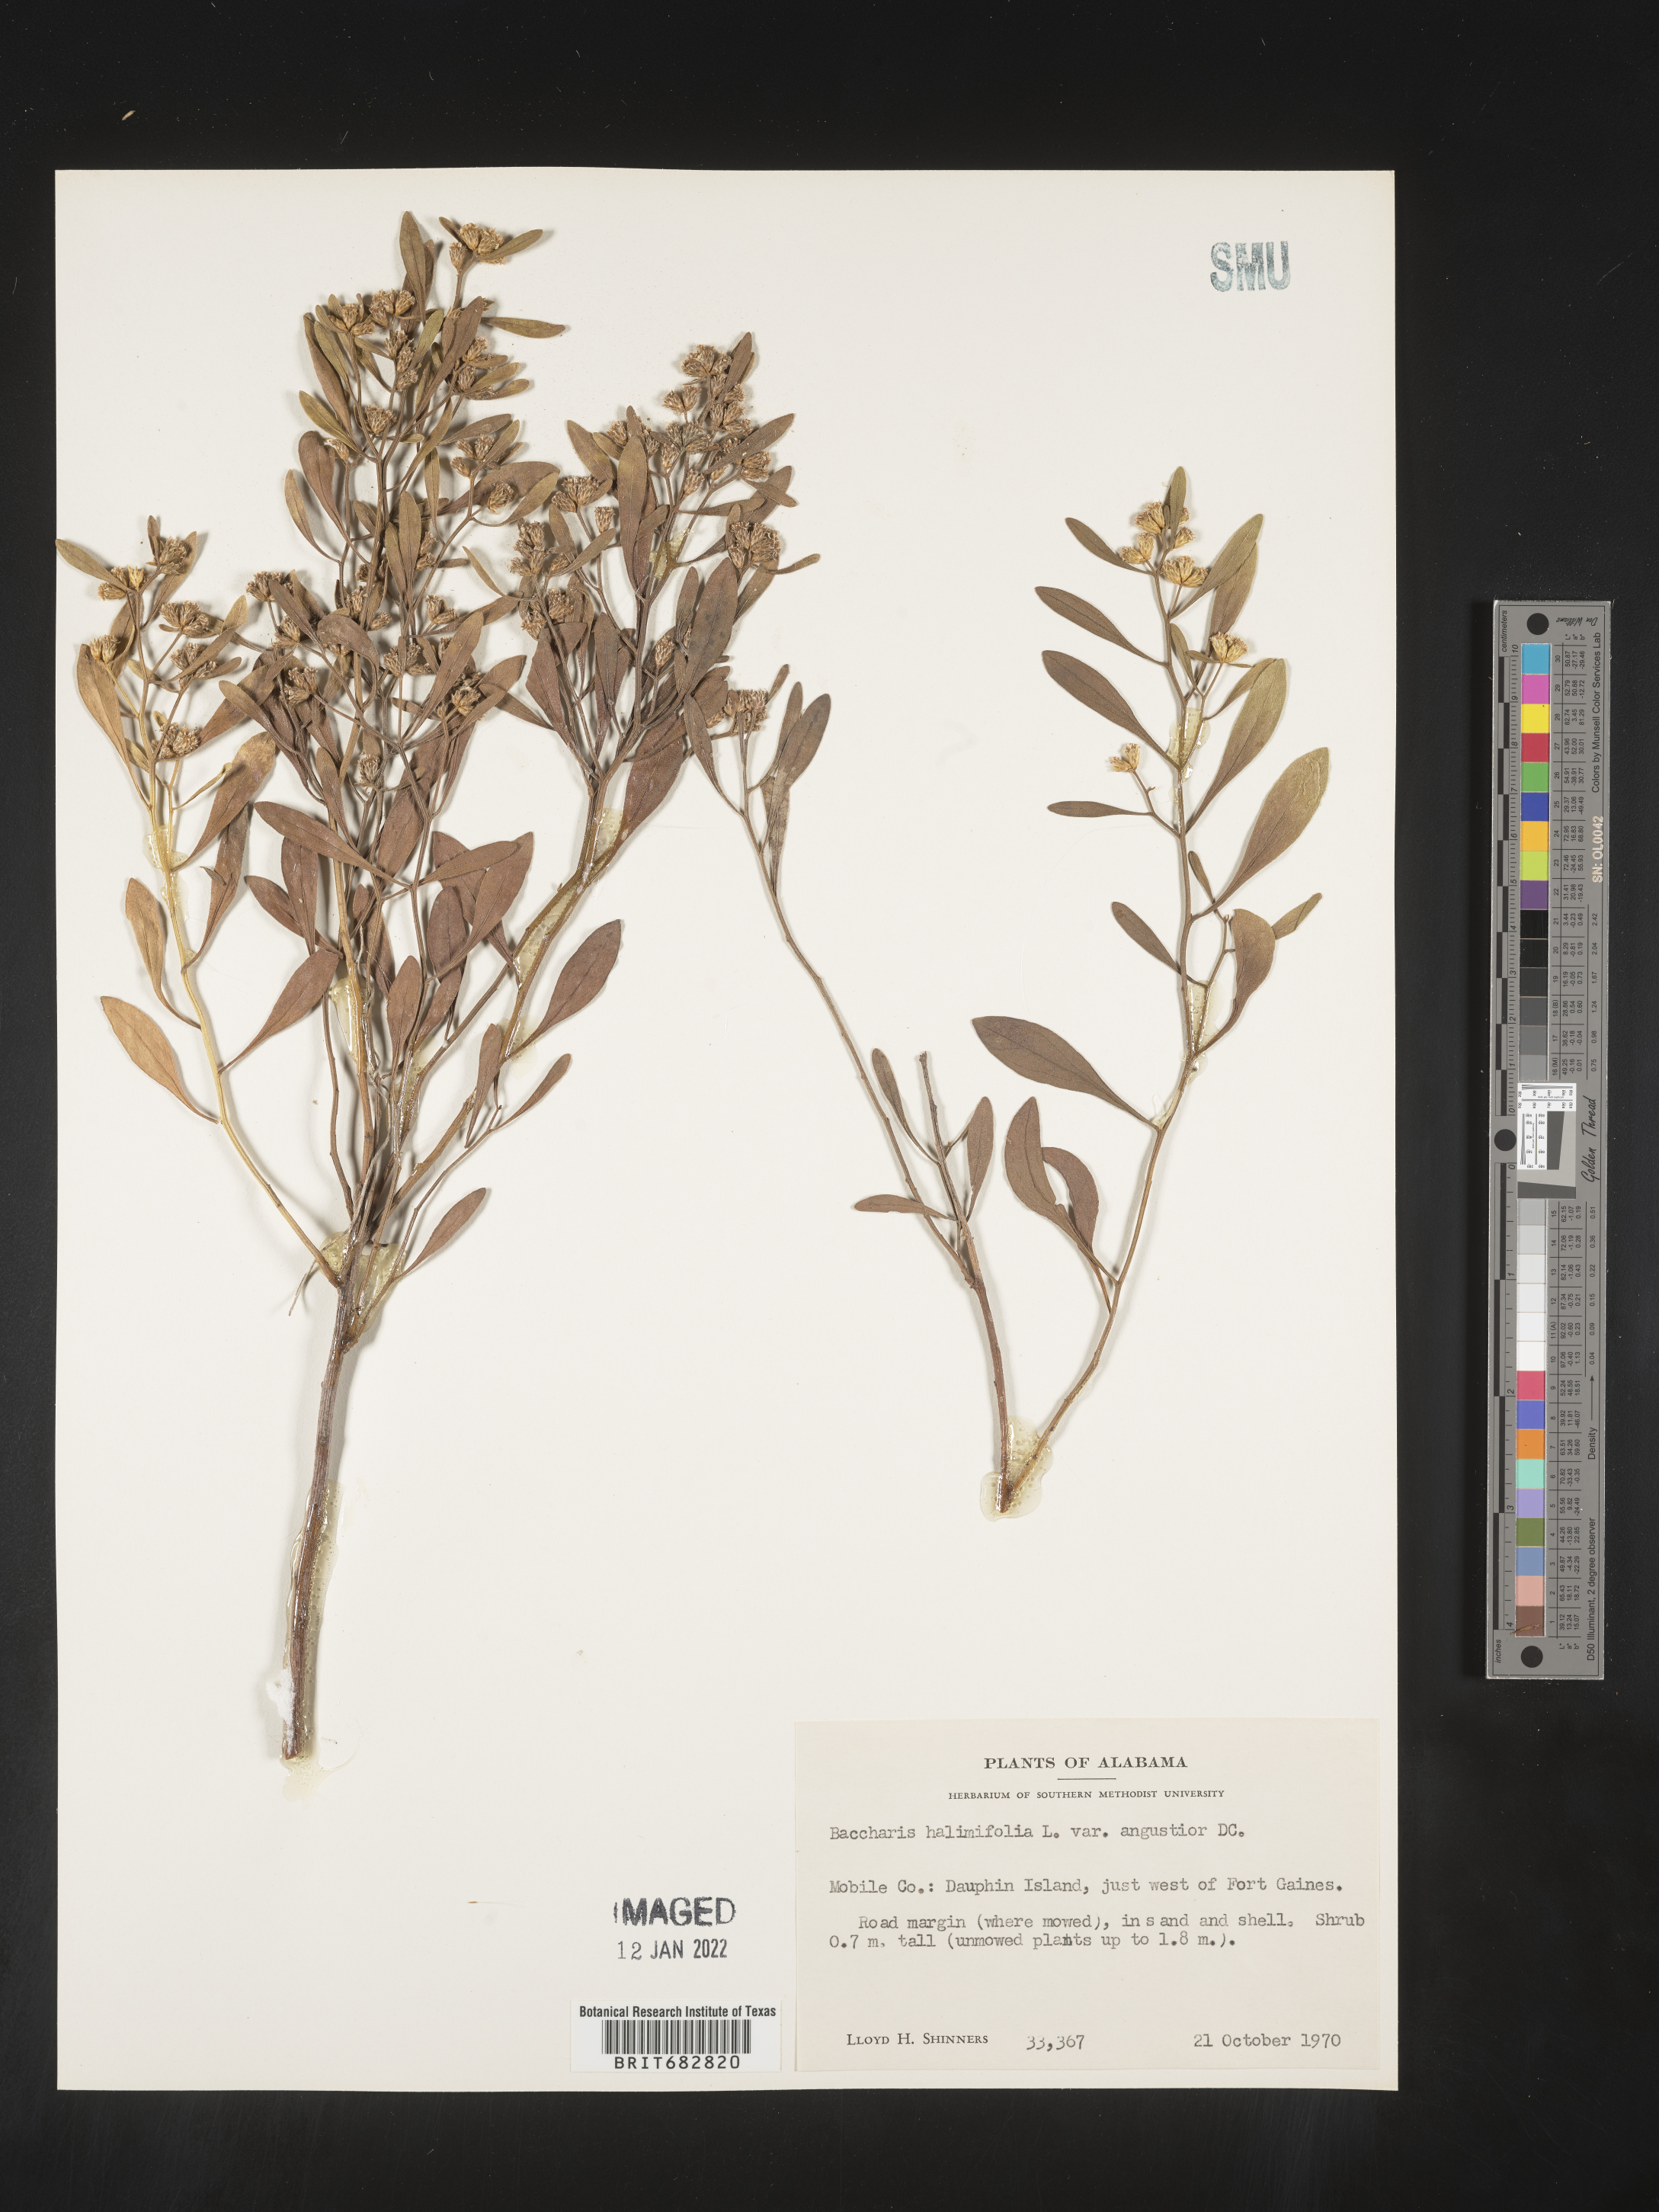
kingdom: Plantae
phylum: Tracheophyta
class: Magnoliopsida
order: Asterales
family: Asteraceae
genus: Nidorella
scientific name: Nidorella ivifolia
